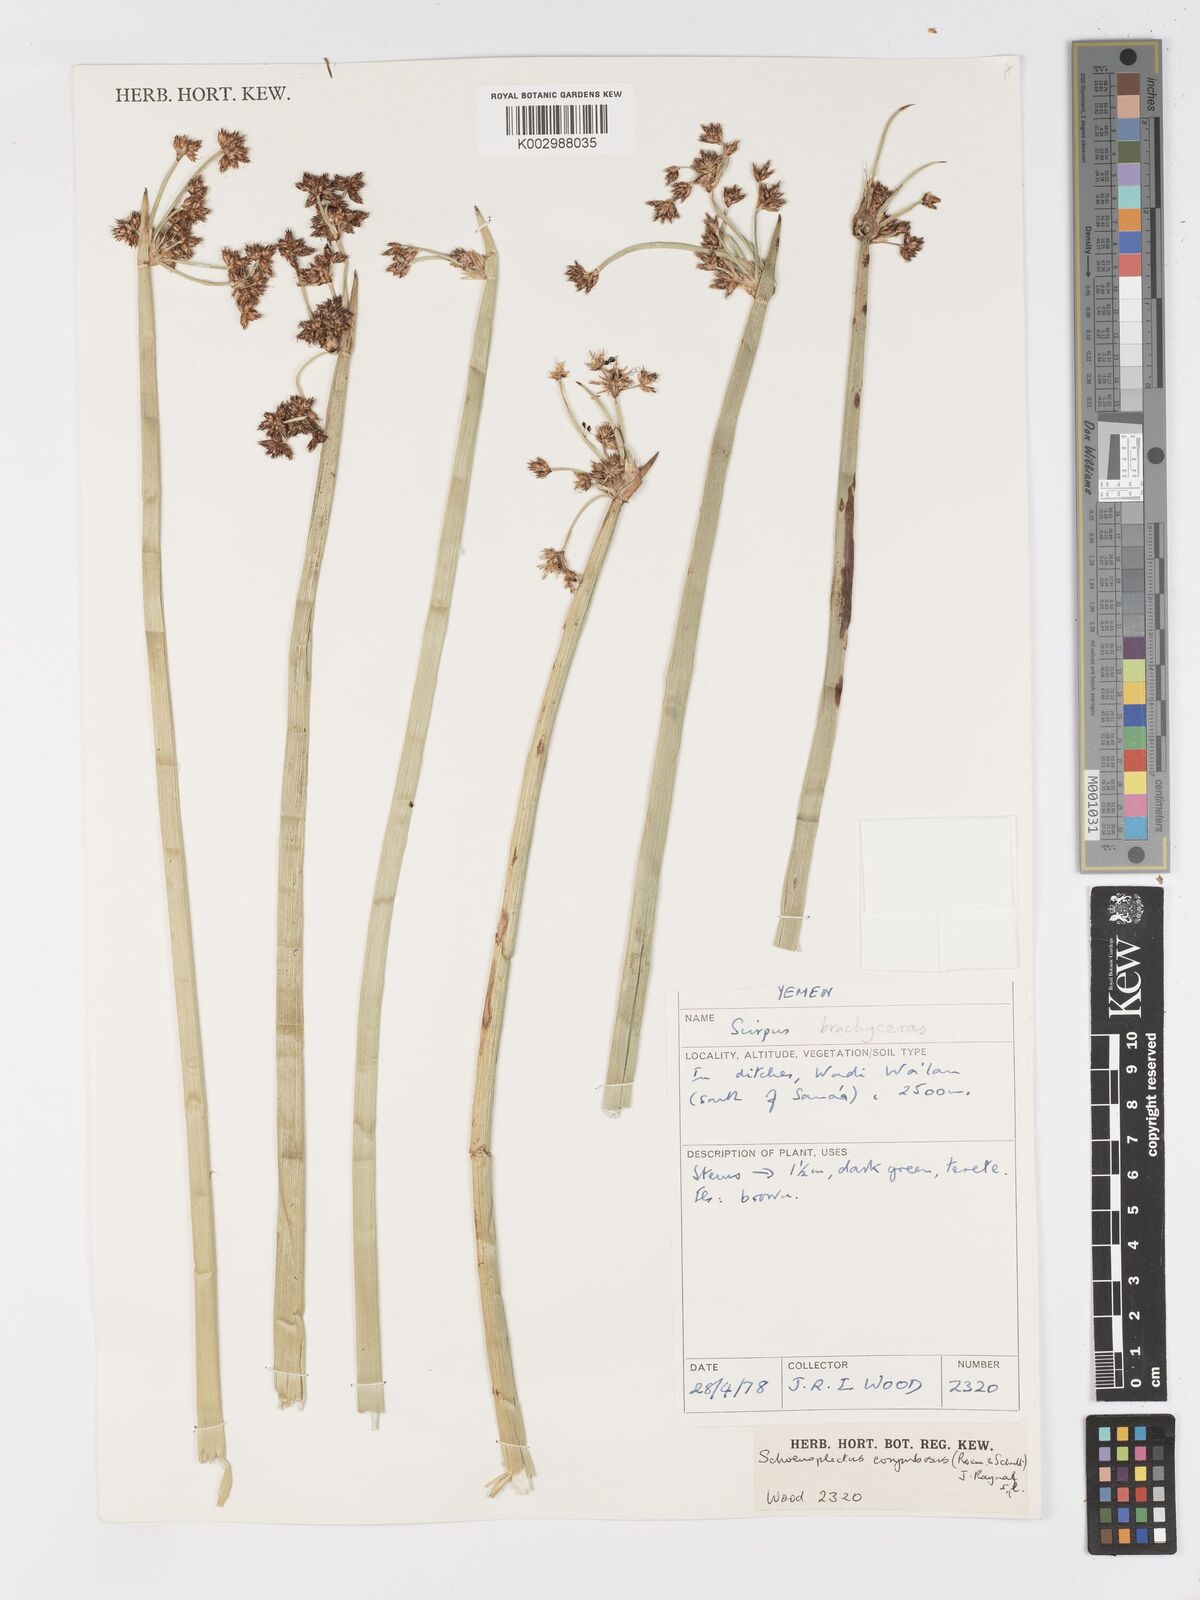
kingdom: Plantae
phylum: Tracheophyta
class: Liliopsida
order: Poales
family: Cyperaceae
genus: Schoenoplectiella
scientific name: Schoenoplectiella corymbosa
